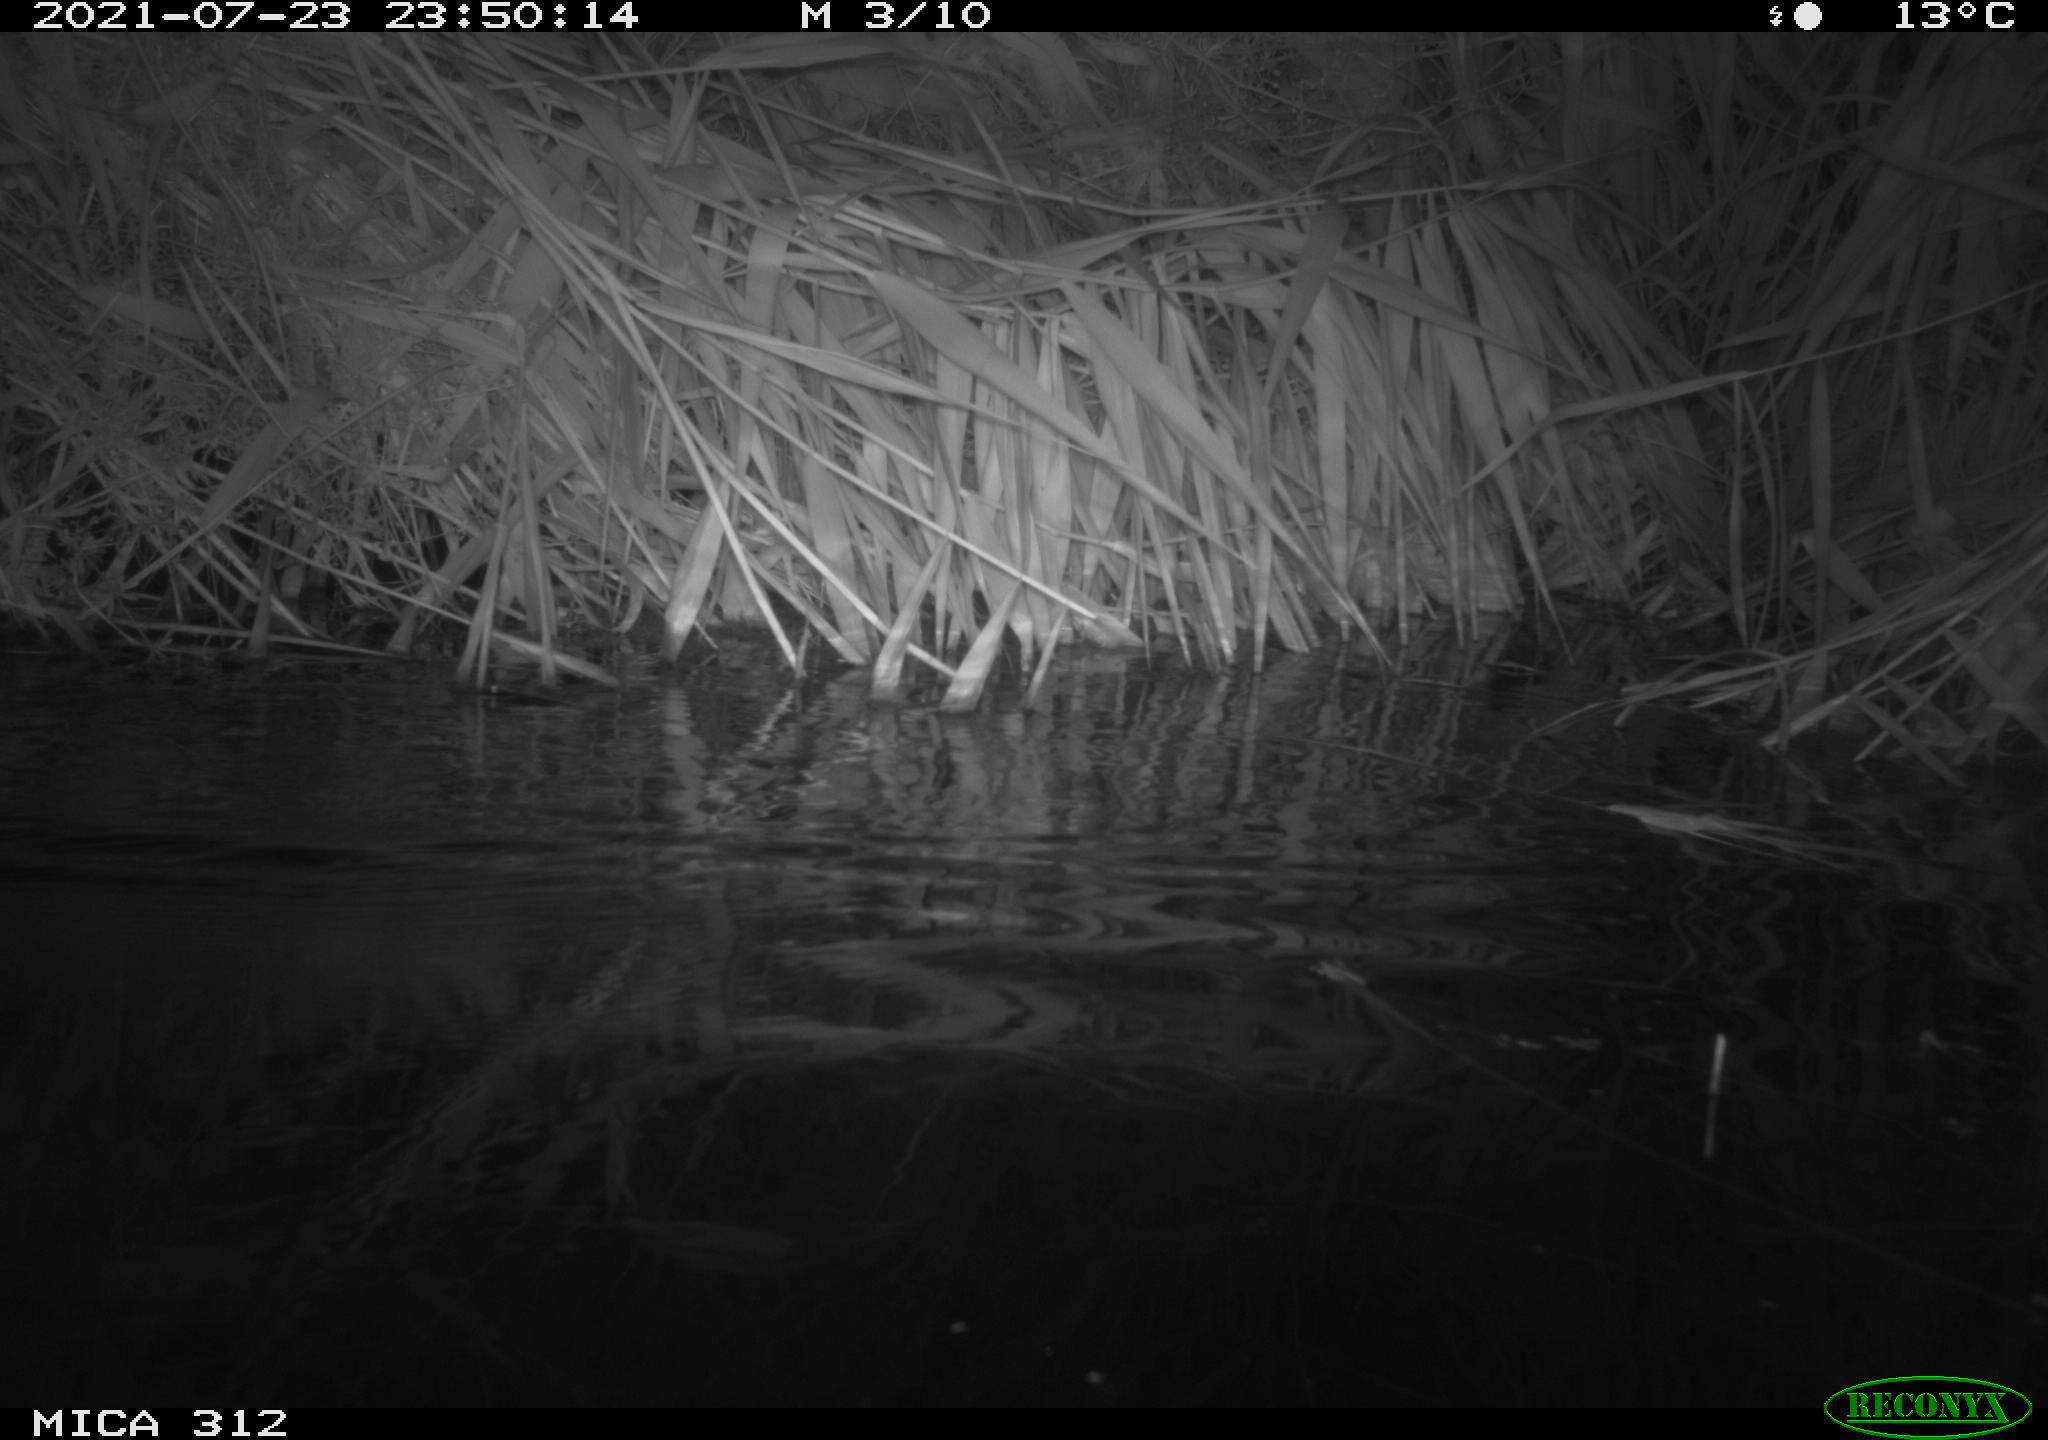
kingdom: Animalia
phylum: Chordata
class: Mammalia
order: Rodentia
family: Muridae
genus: Rattus
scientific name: Rattus norvegicus
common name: Brown rat
